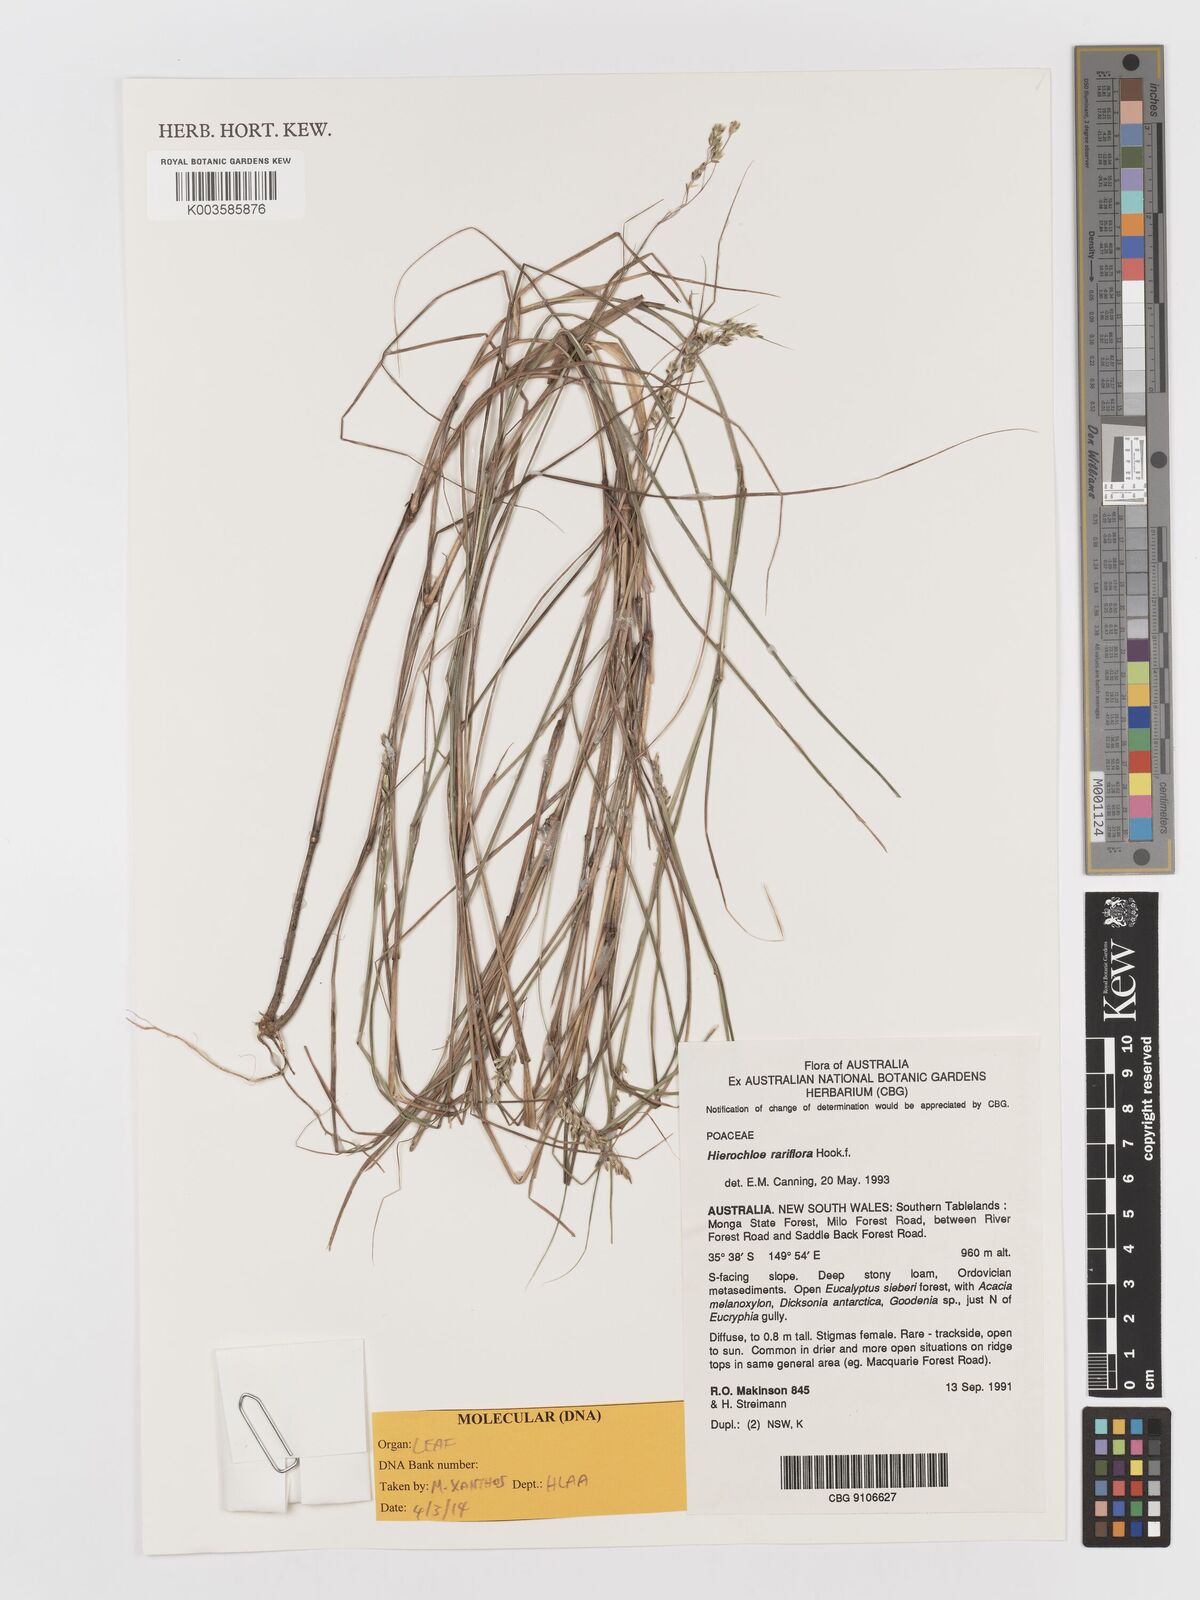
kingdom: Plantae
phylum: Tracheophyta
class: Liliopsida
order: Poales
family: Poaceae
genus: Anthoxanthum
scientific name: Anthoxanthum rariflorum
